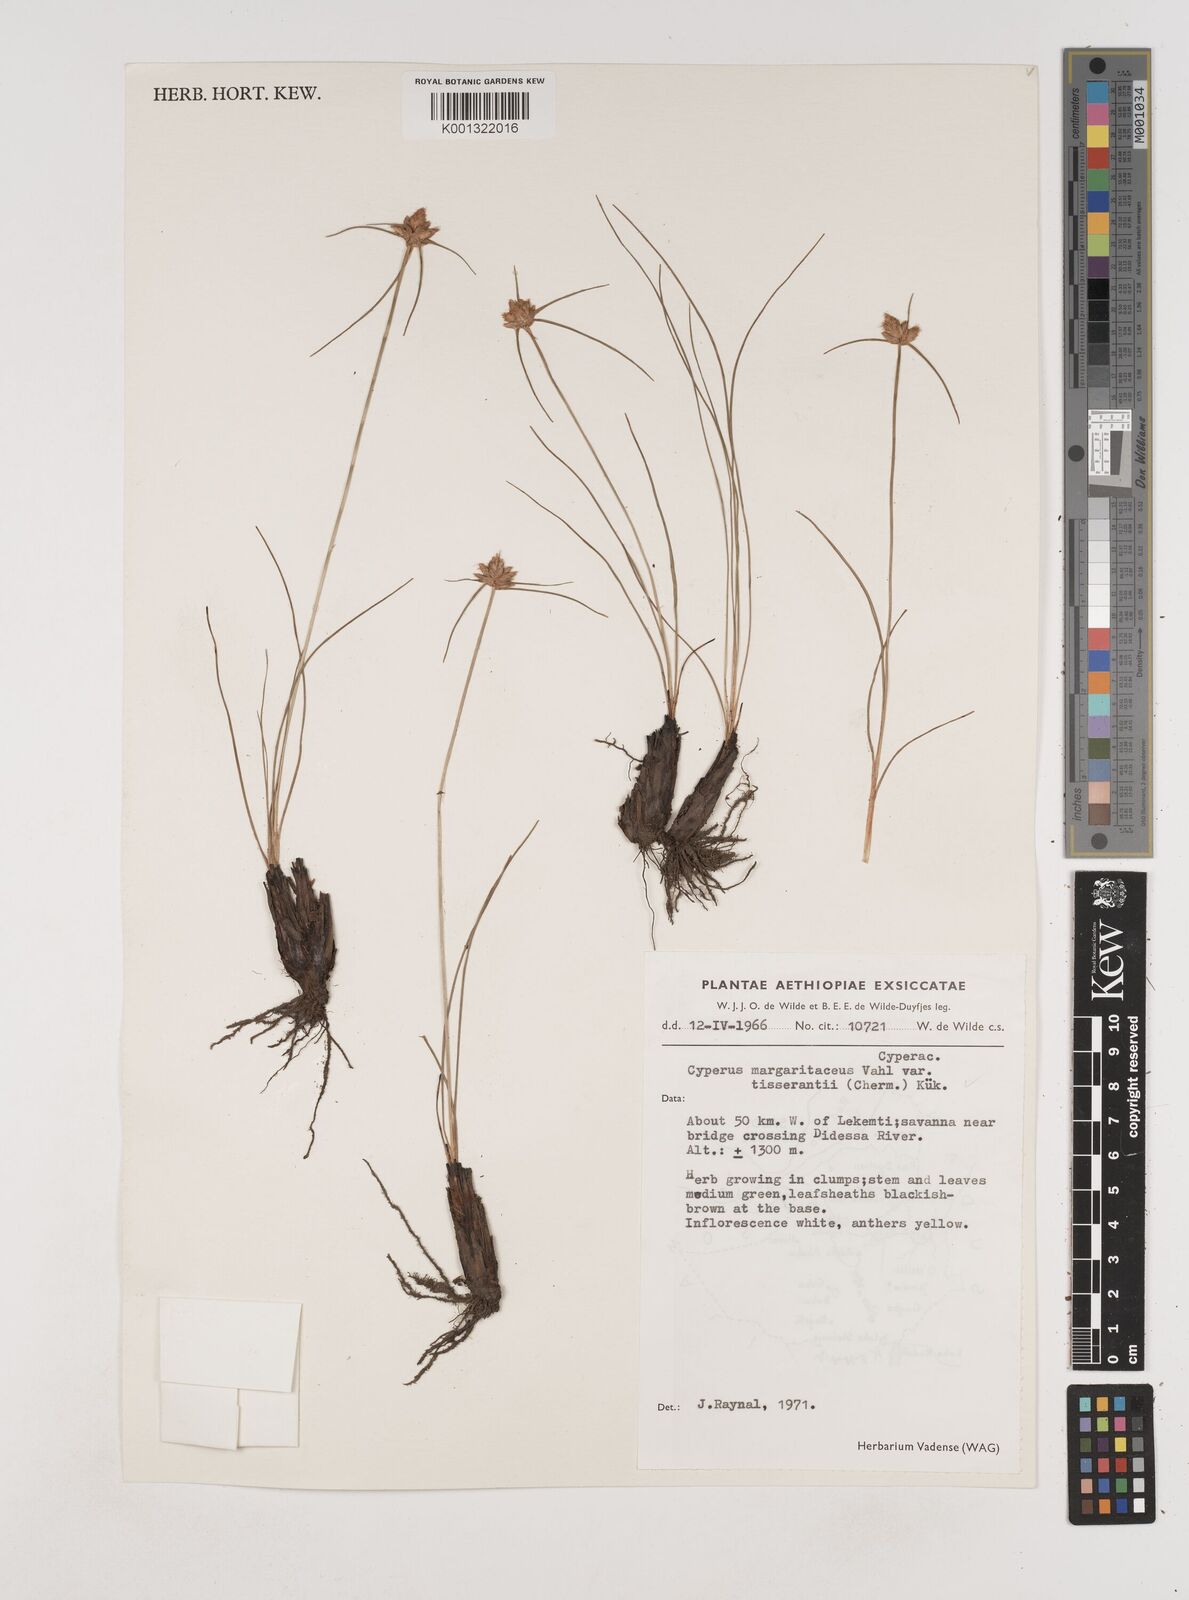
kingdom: Plantae
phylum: Tracheophyta
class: Liliopsida
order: Poales
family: Cyperaceae
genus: Cyperus
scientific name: Cyperus niveus
